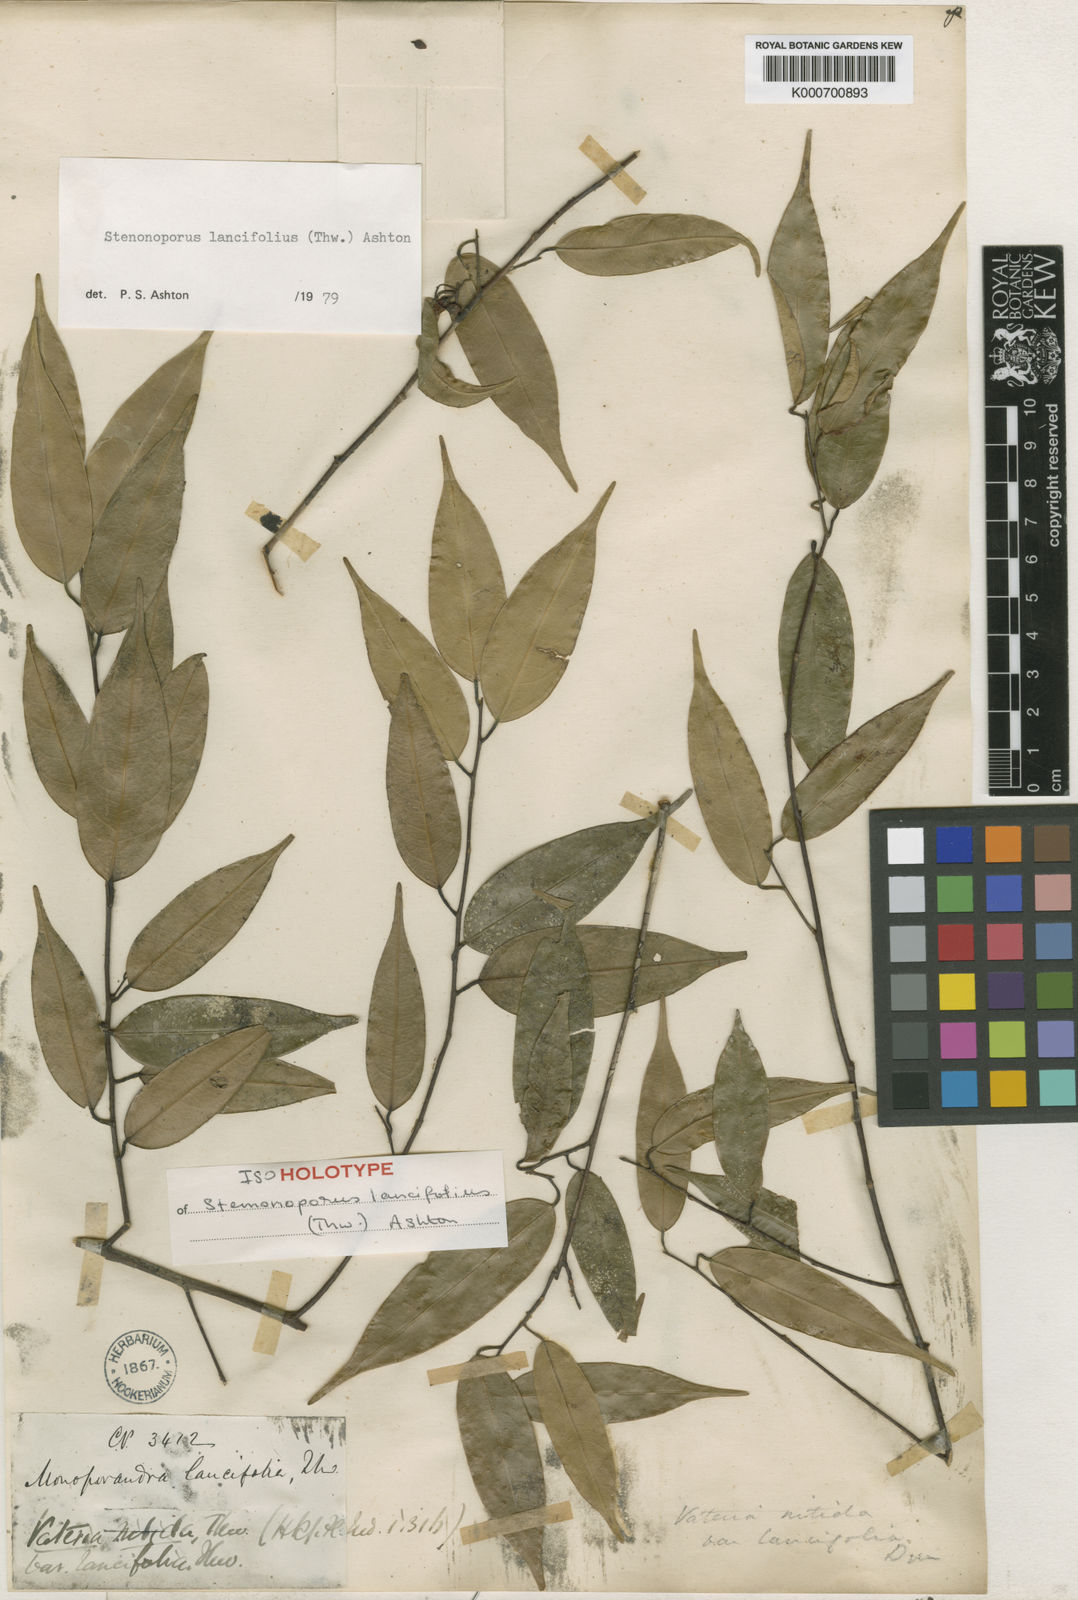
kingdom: Plantae
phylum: Tracheophyta
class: Magnoliopsida
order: Malvales
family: Dipterocarpaceae
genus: Stemonoporus
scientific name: Stemonoporus lancifolius
